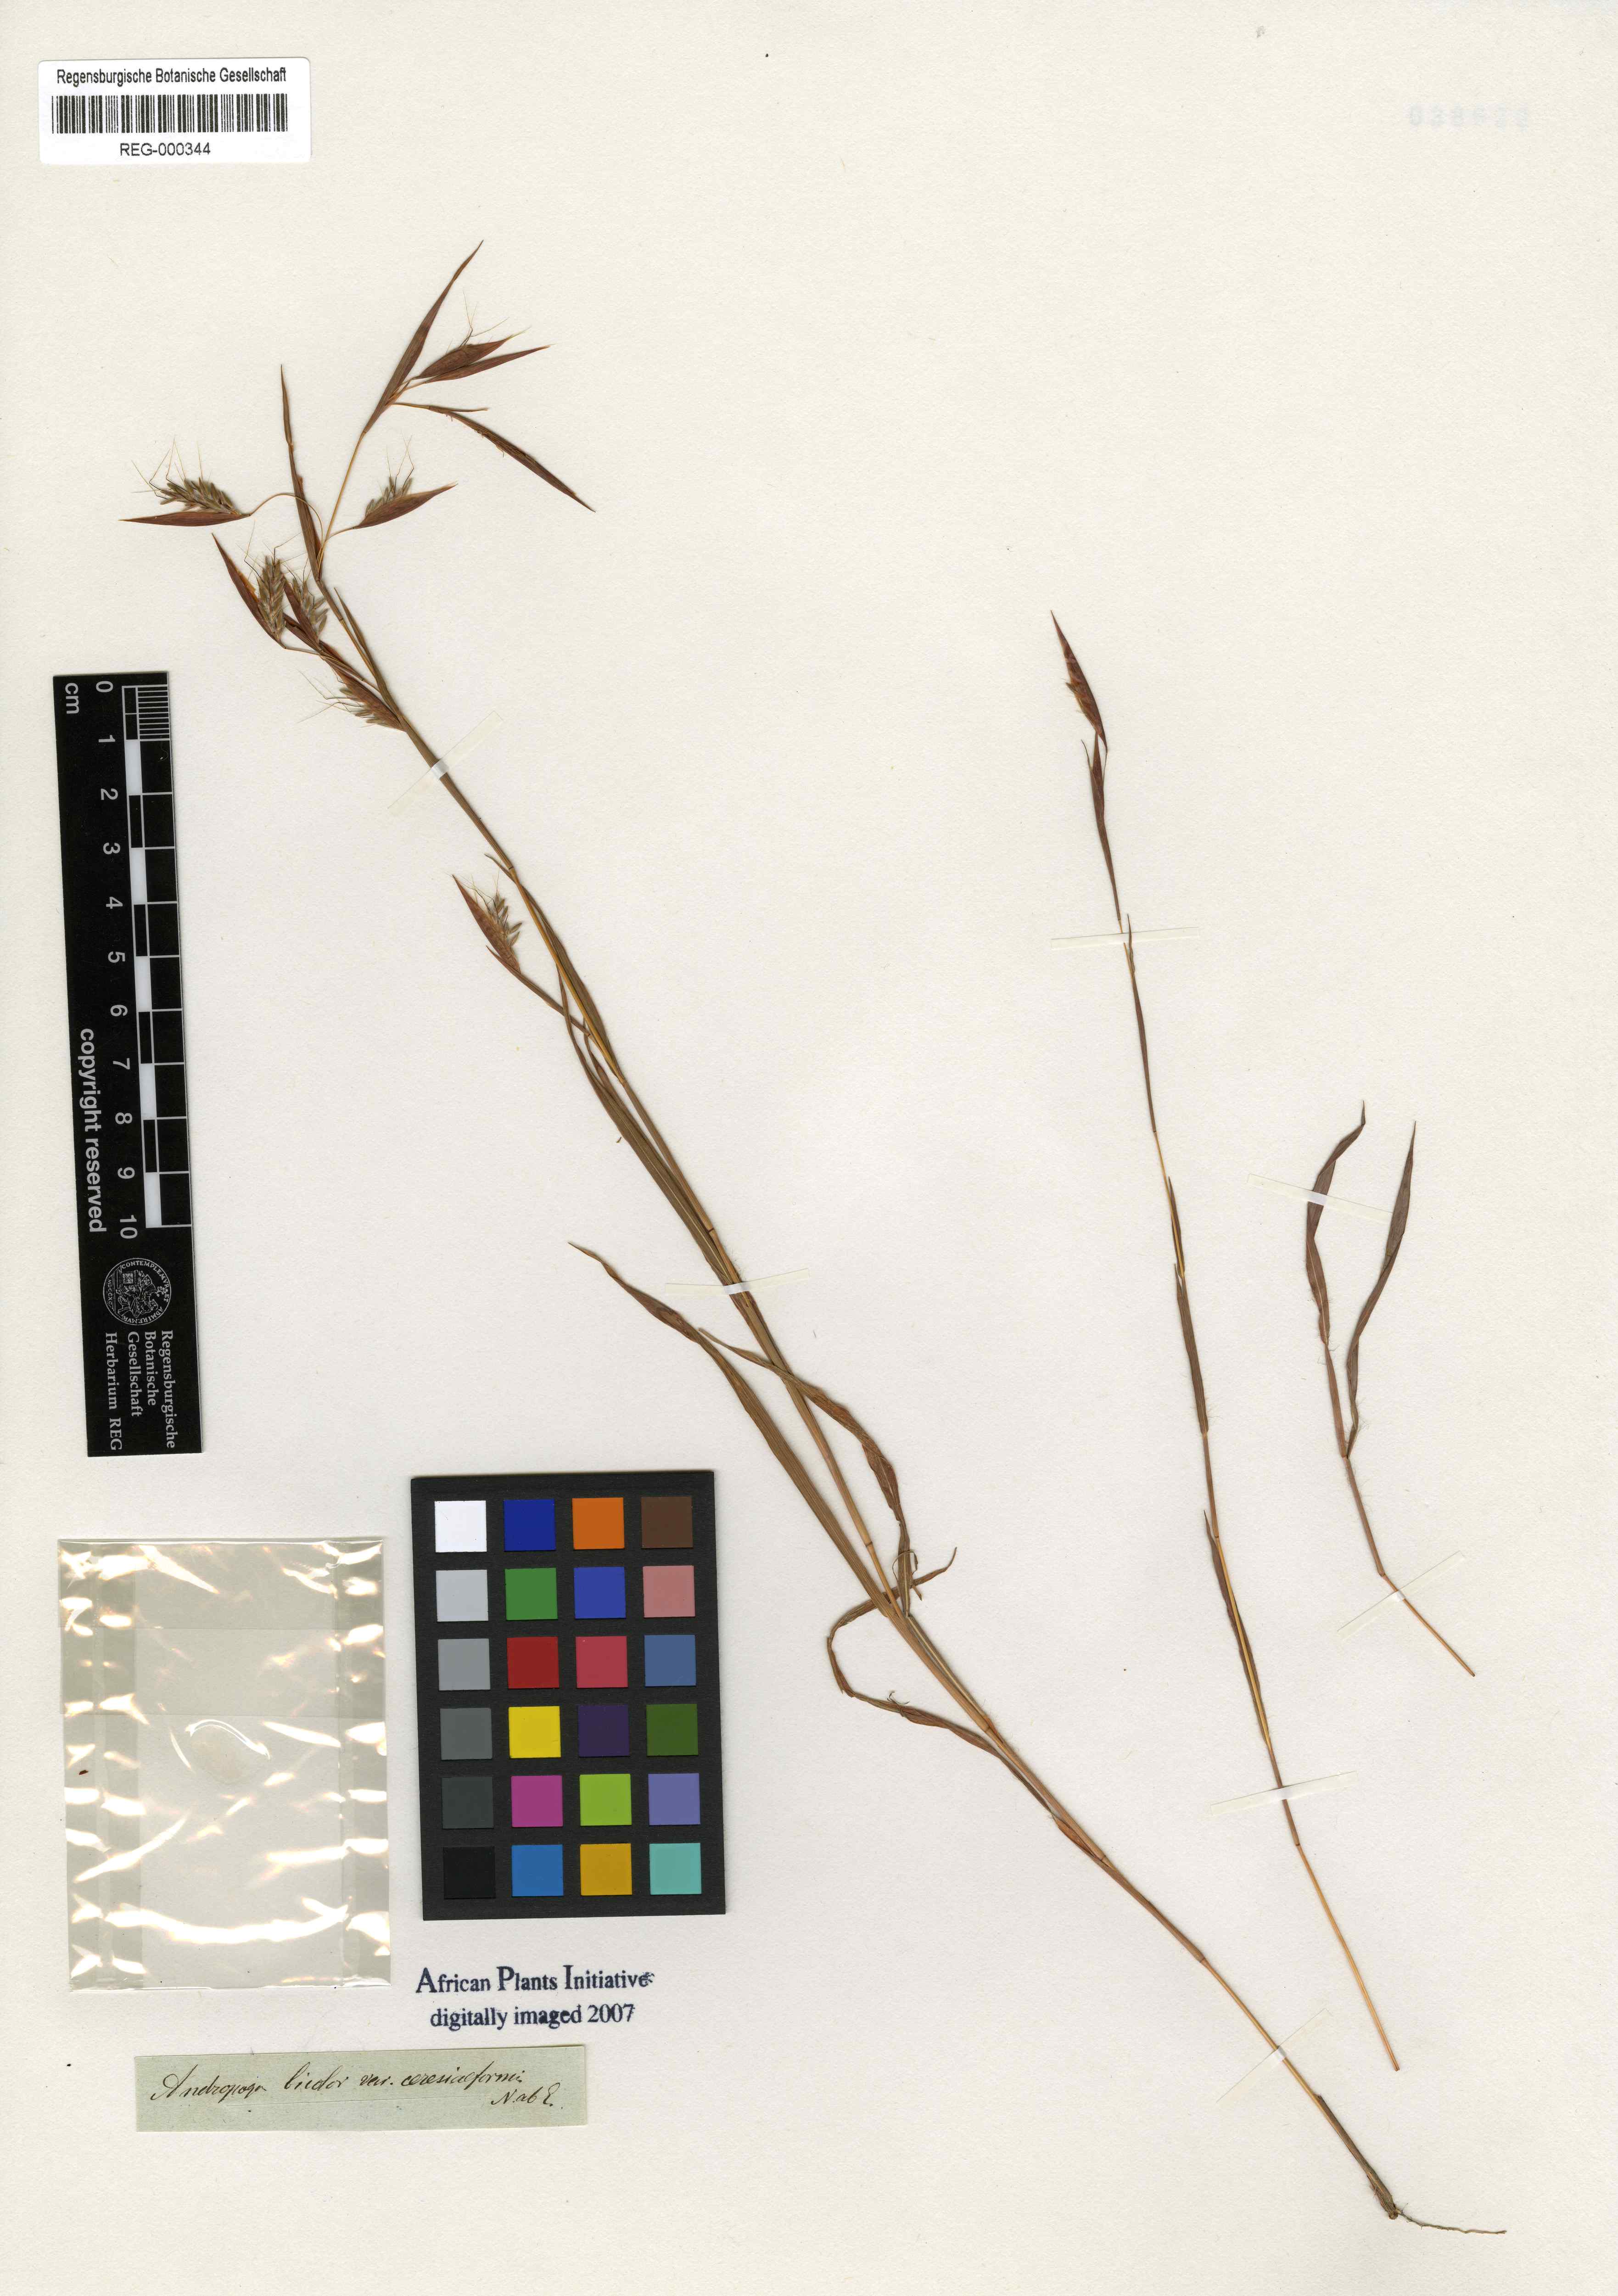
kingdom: Plantae
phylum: Tracheophyta
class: Liliopsida
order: Poales
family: Poaceae
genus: Monocymbium
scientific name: Monocymbium ceresiiforme
